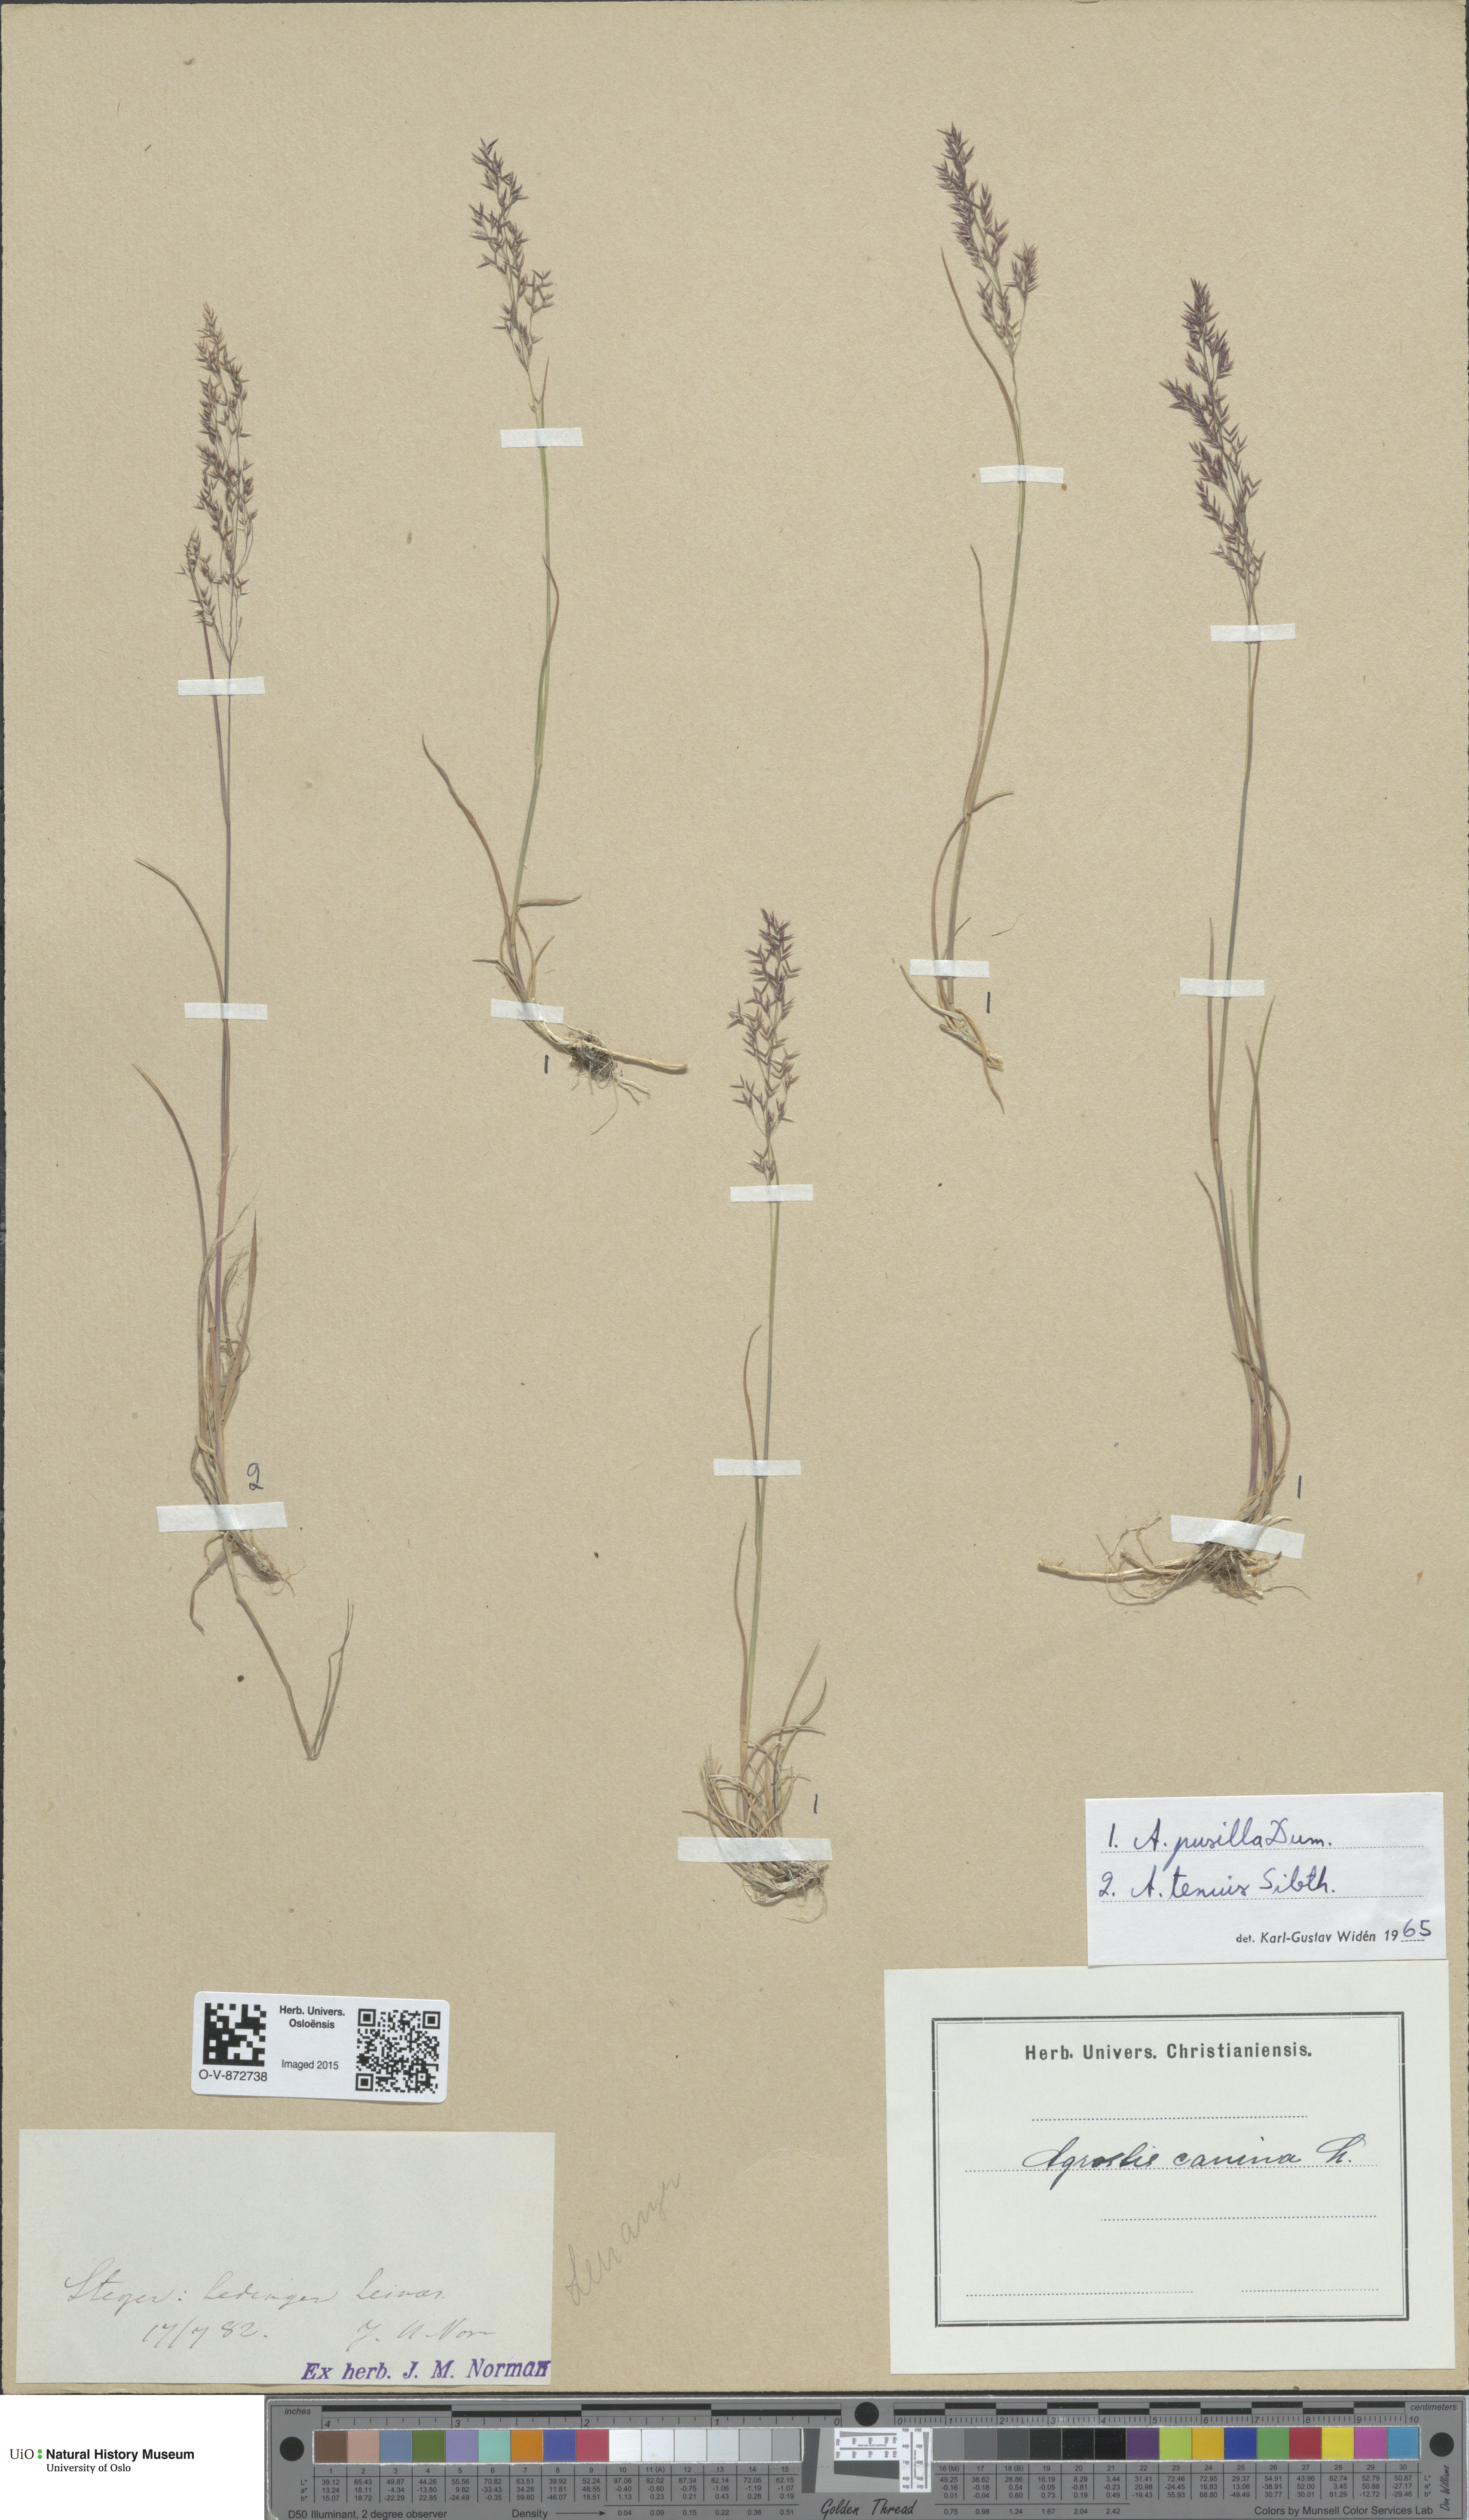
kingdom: Plantae
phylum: Tracheophyta
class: Liliopsida
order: Poales
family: Poaceae
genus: Agrostis
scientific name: Agrostis capillaris
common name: Colonial bentgrass
